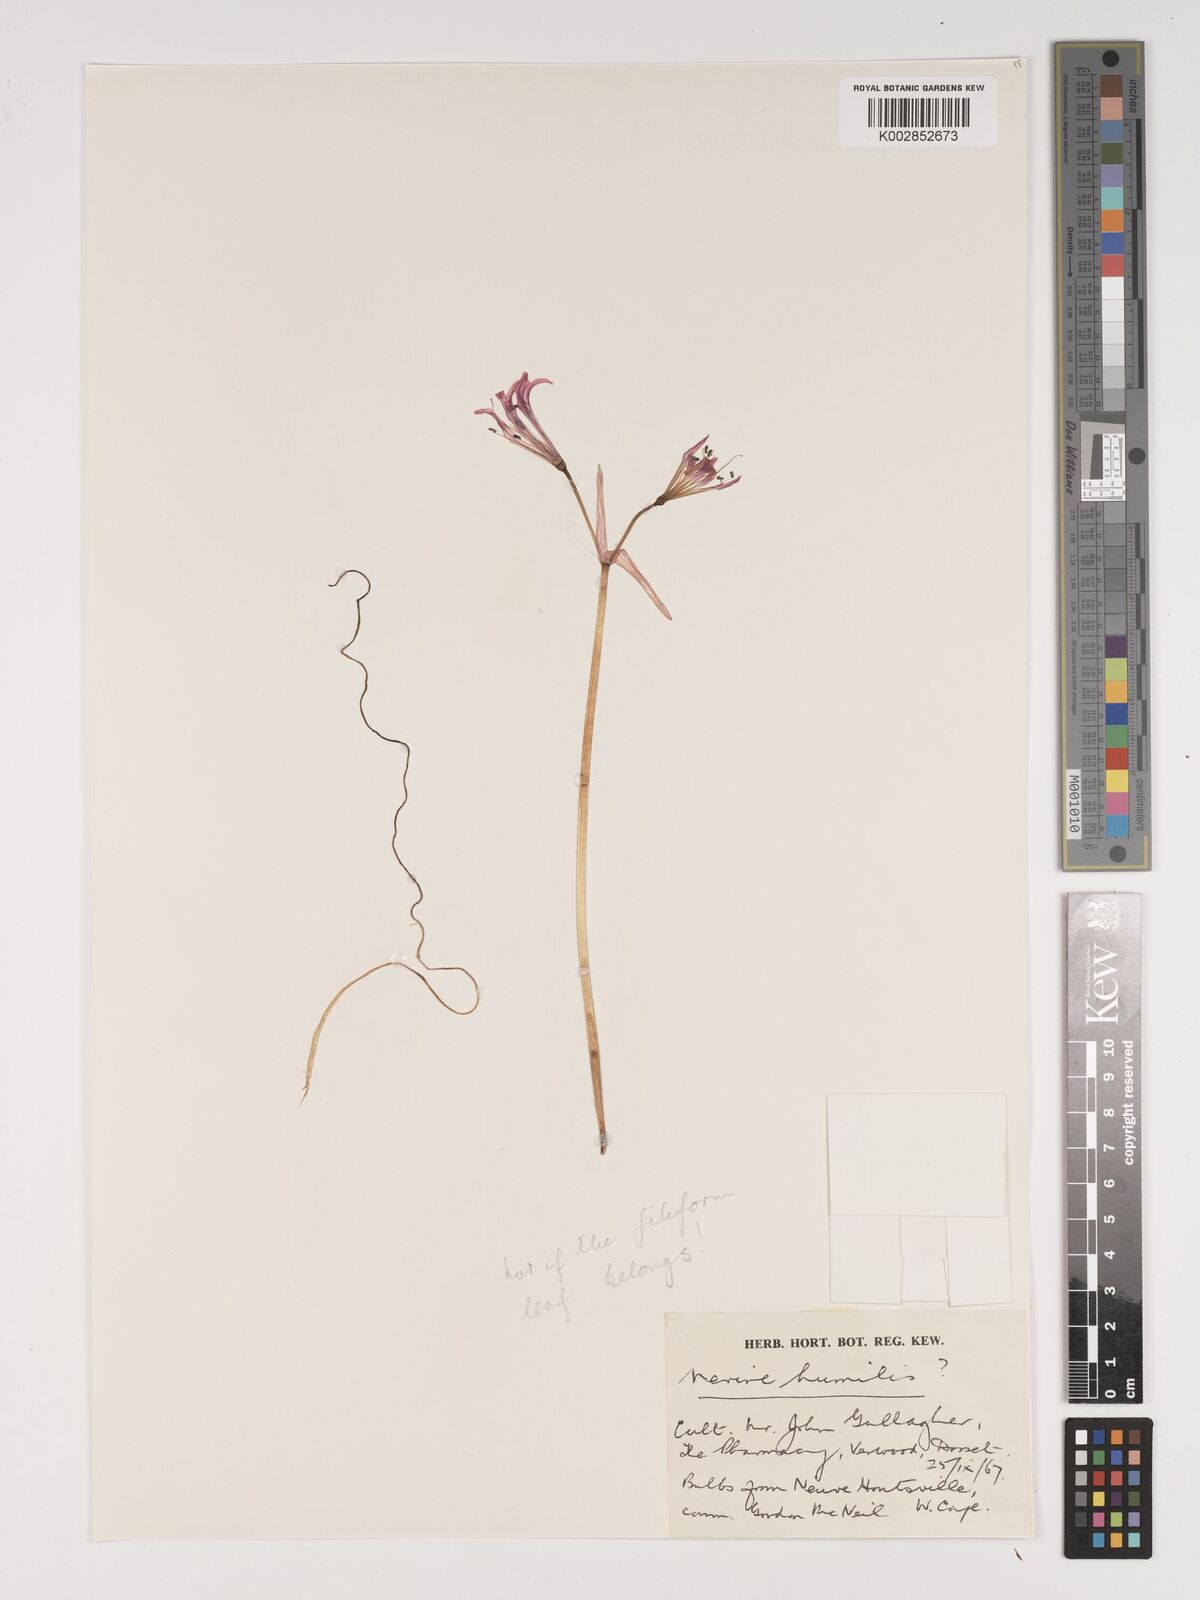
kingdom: Plantae
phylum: Tracheophyta
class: Liliopsida
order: Asparagales
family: Amaryllidaceae
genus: Nerine
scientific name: Nerine humilis
